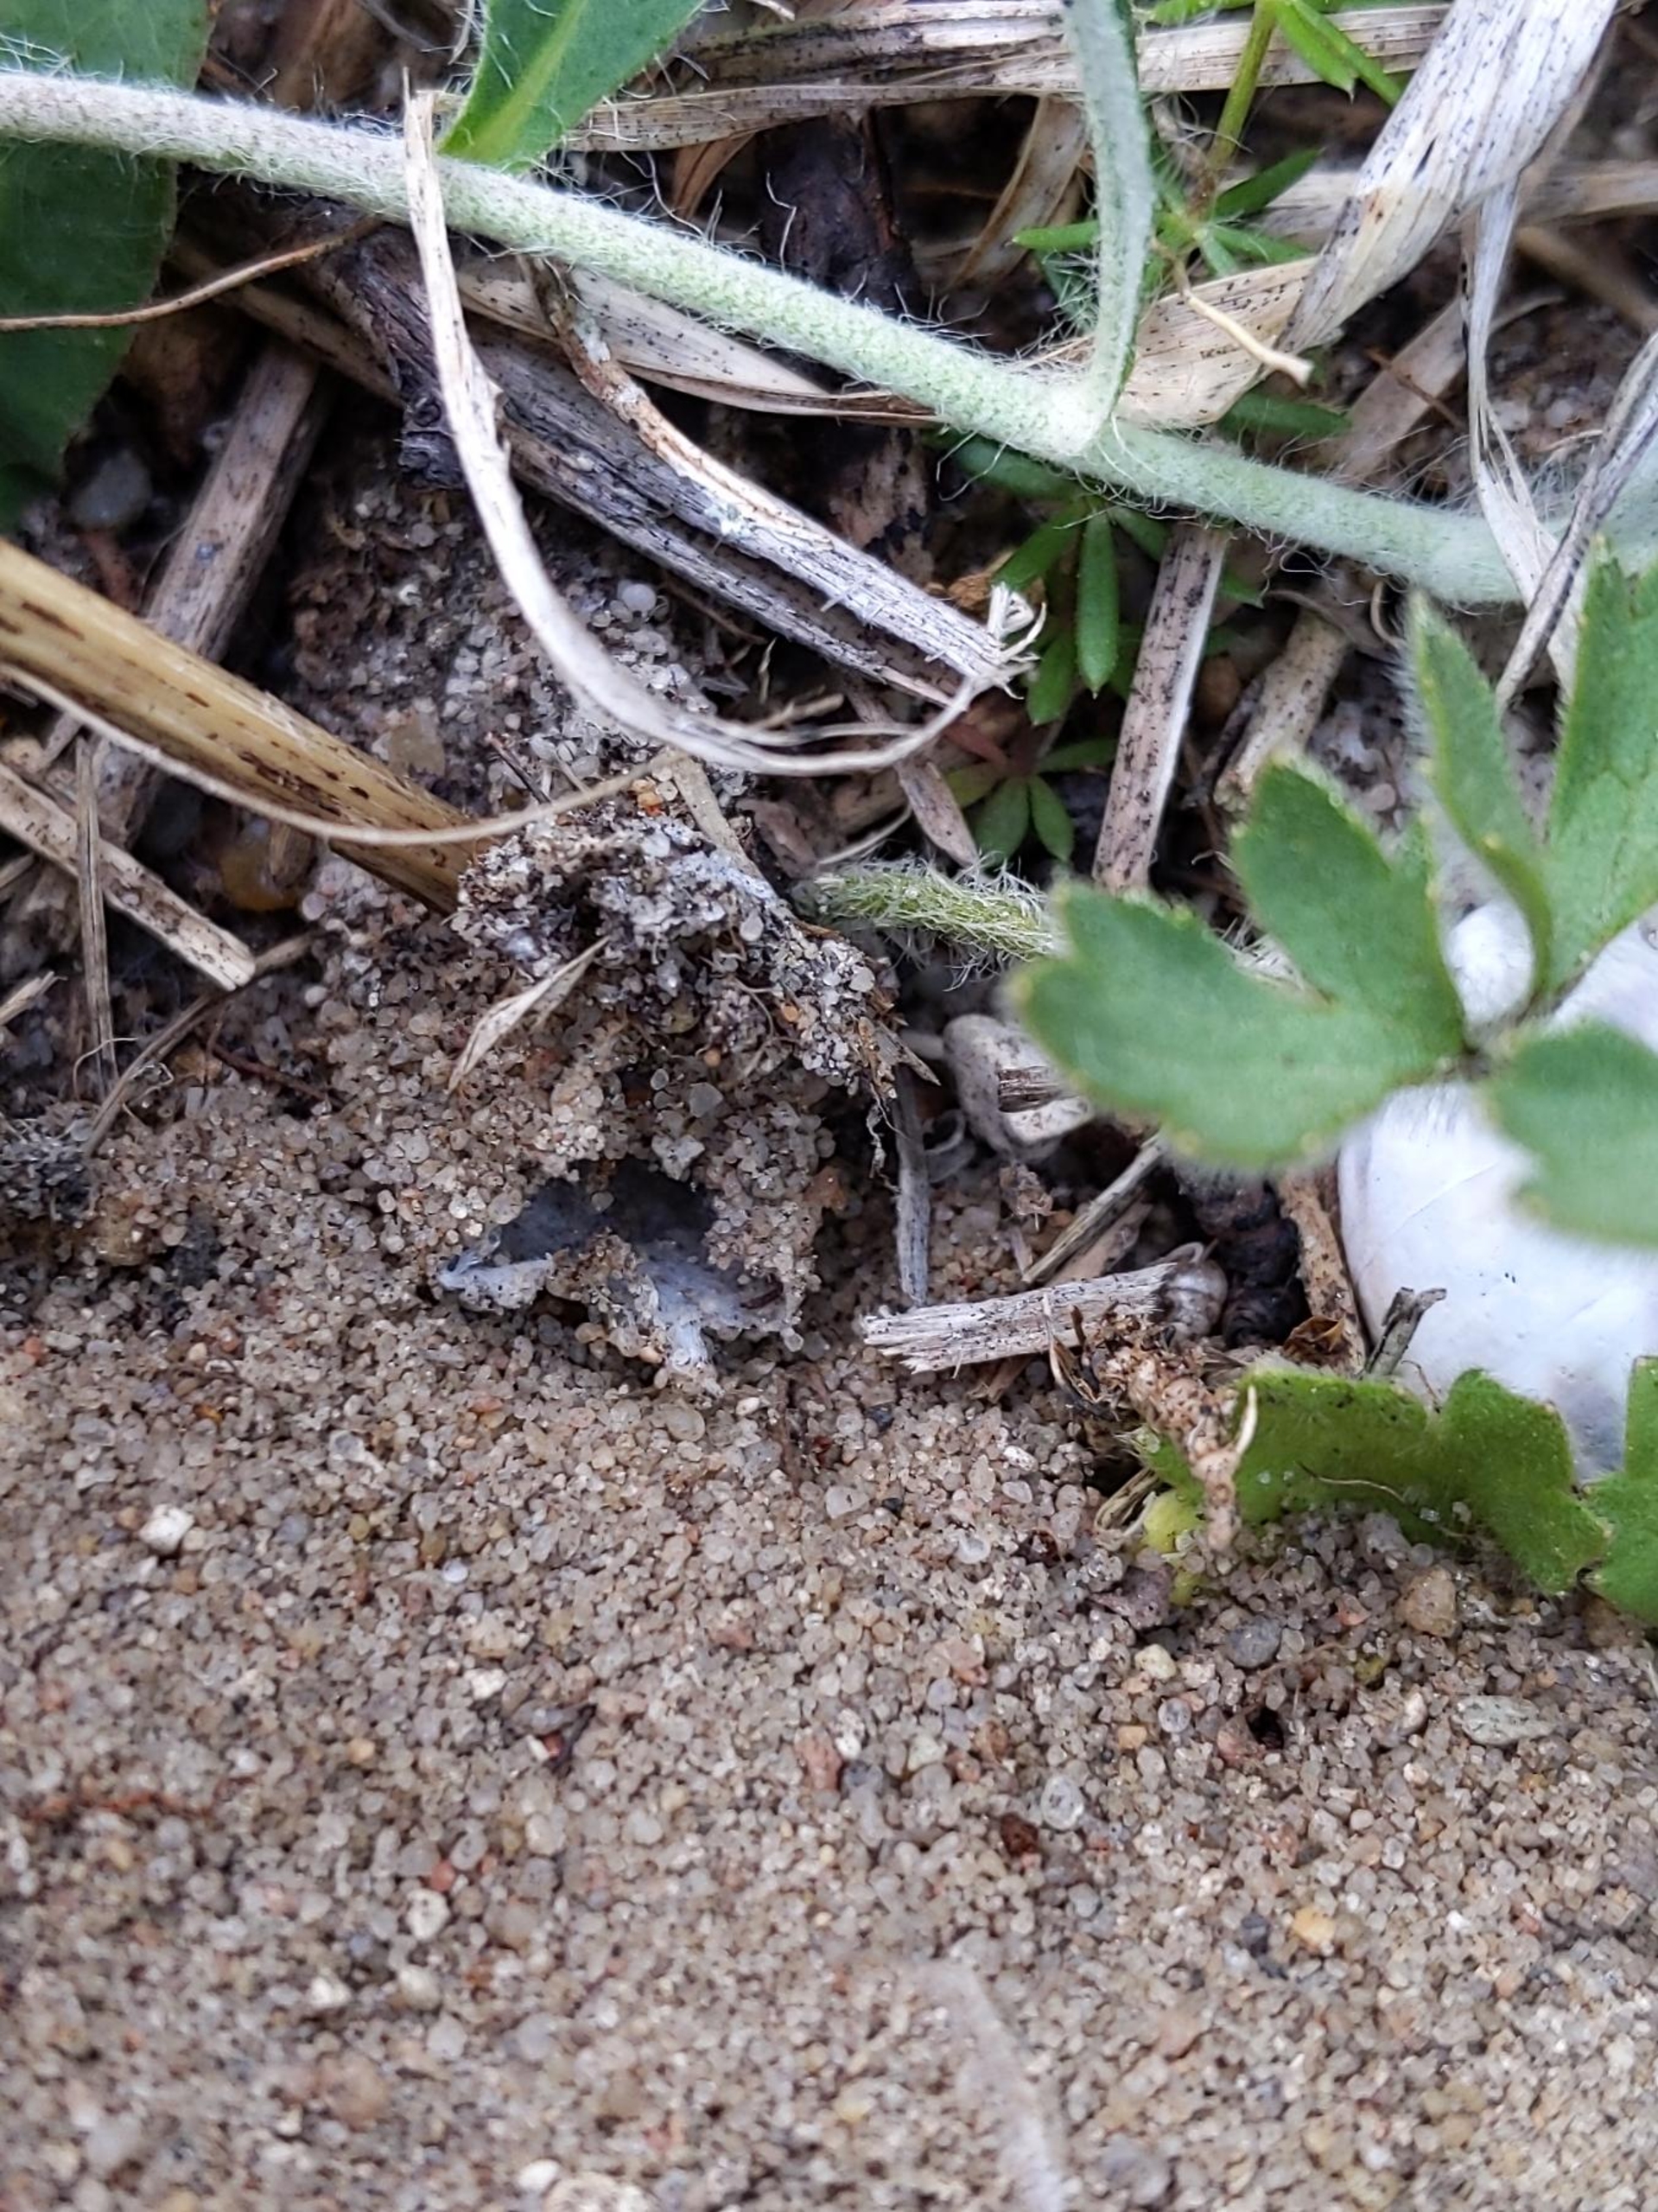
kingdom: Animalia
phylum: Arthropoda
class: Arachnida
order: Araneae
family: Atypidae
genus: Atypus
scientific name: Atypus affinis
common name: Nordlig fugleedderkop
